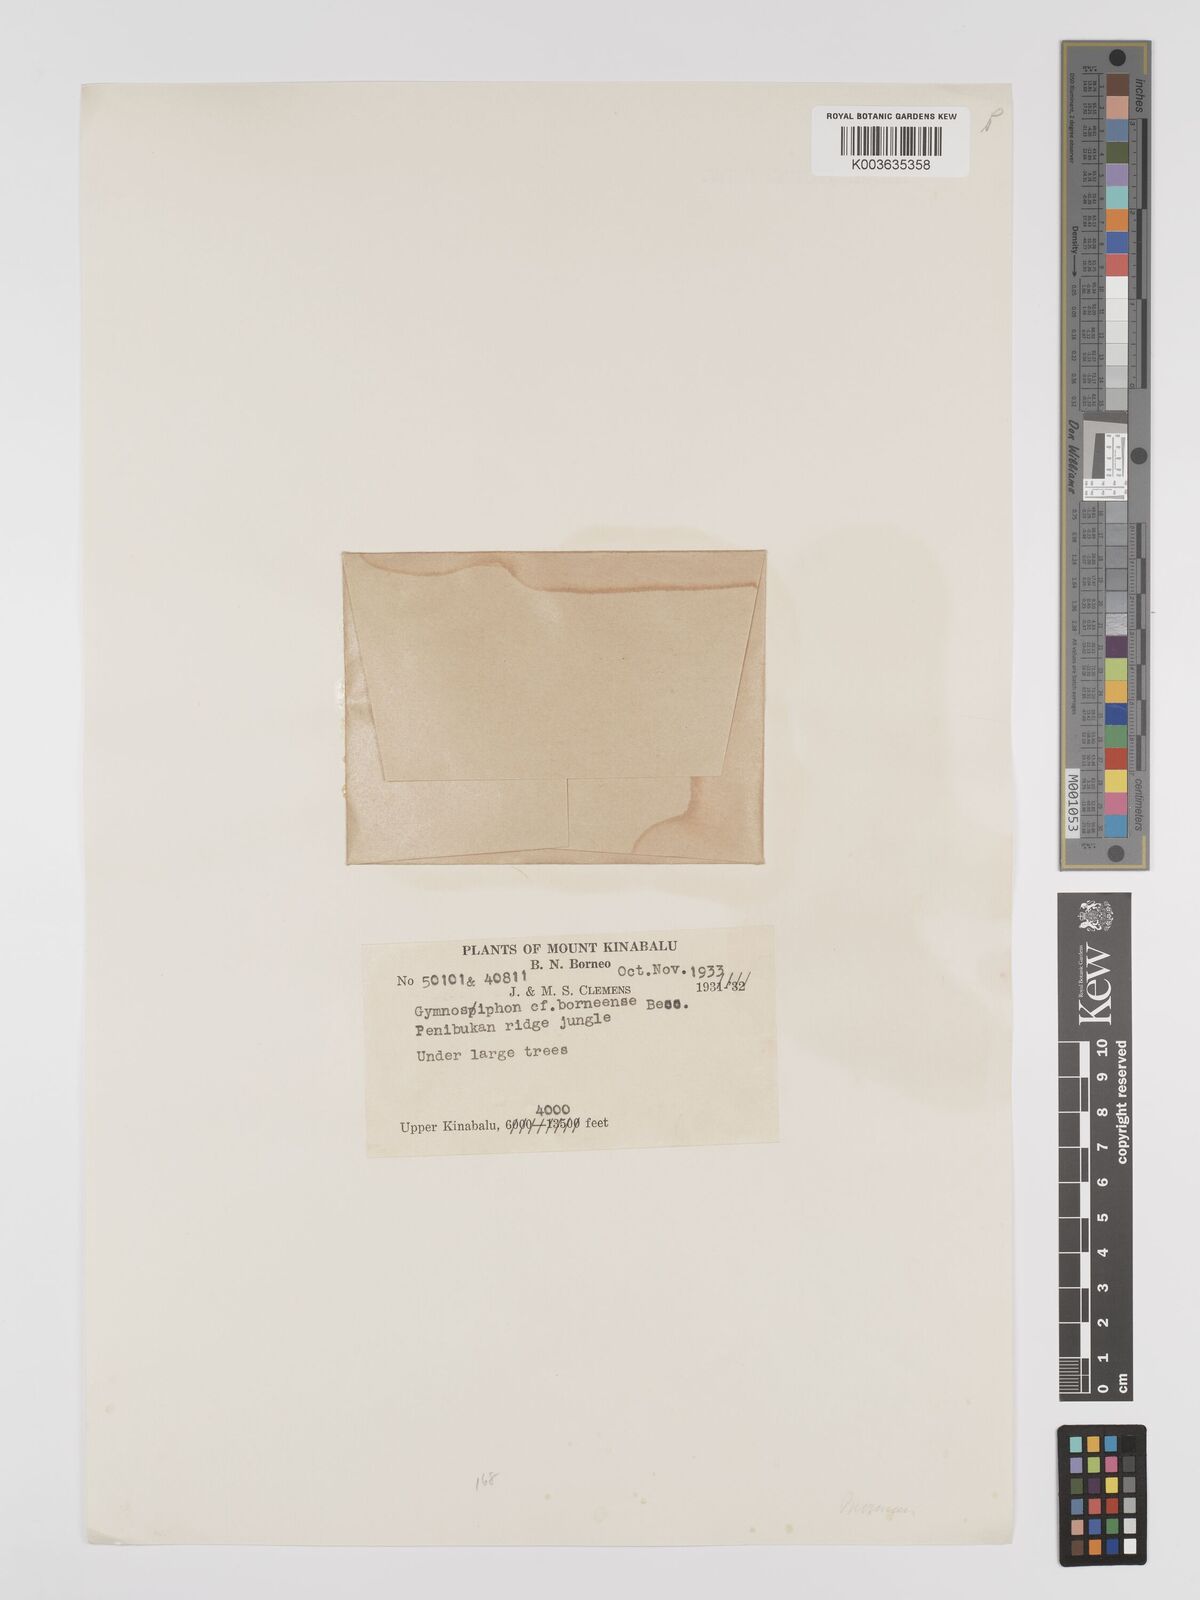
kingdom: Plantae
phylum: Tracheophyta
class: Liliopsida
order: Dioscoreales
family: Burmanniaceae
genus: Gymnosiphon
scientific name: Gymnosiphon aphyllus
